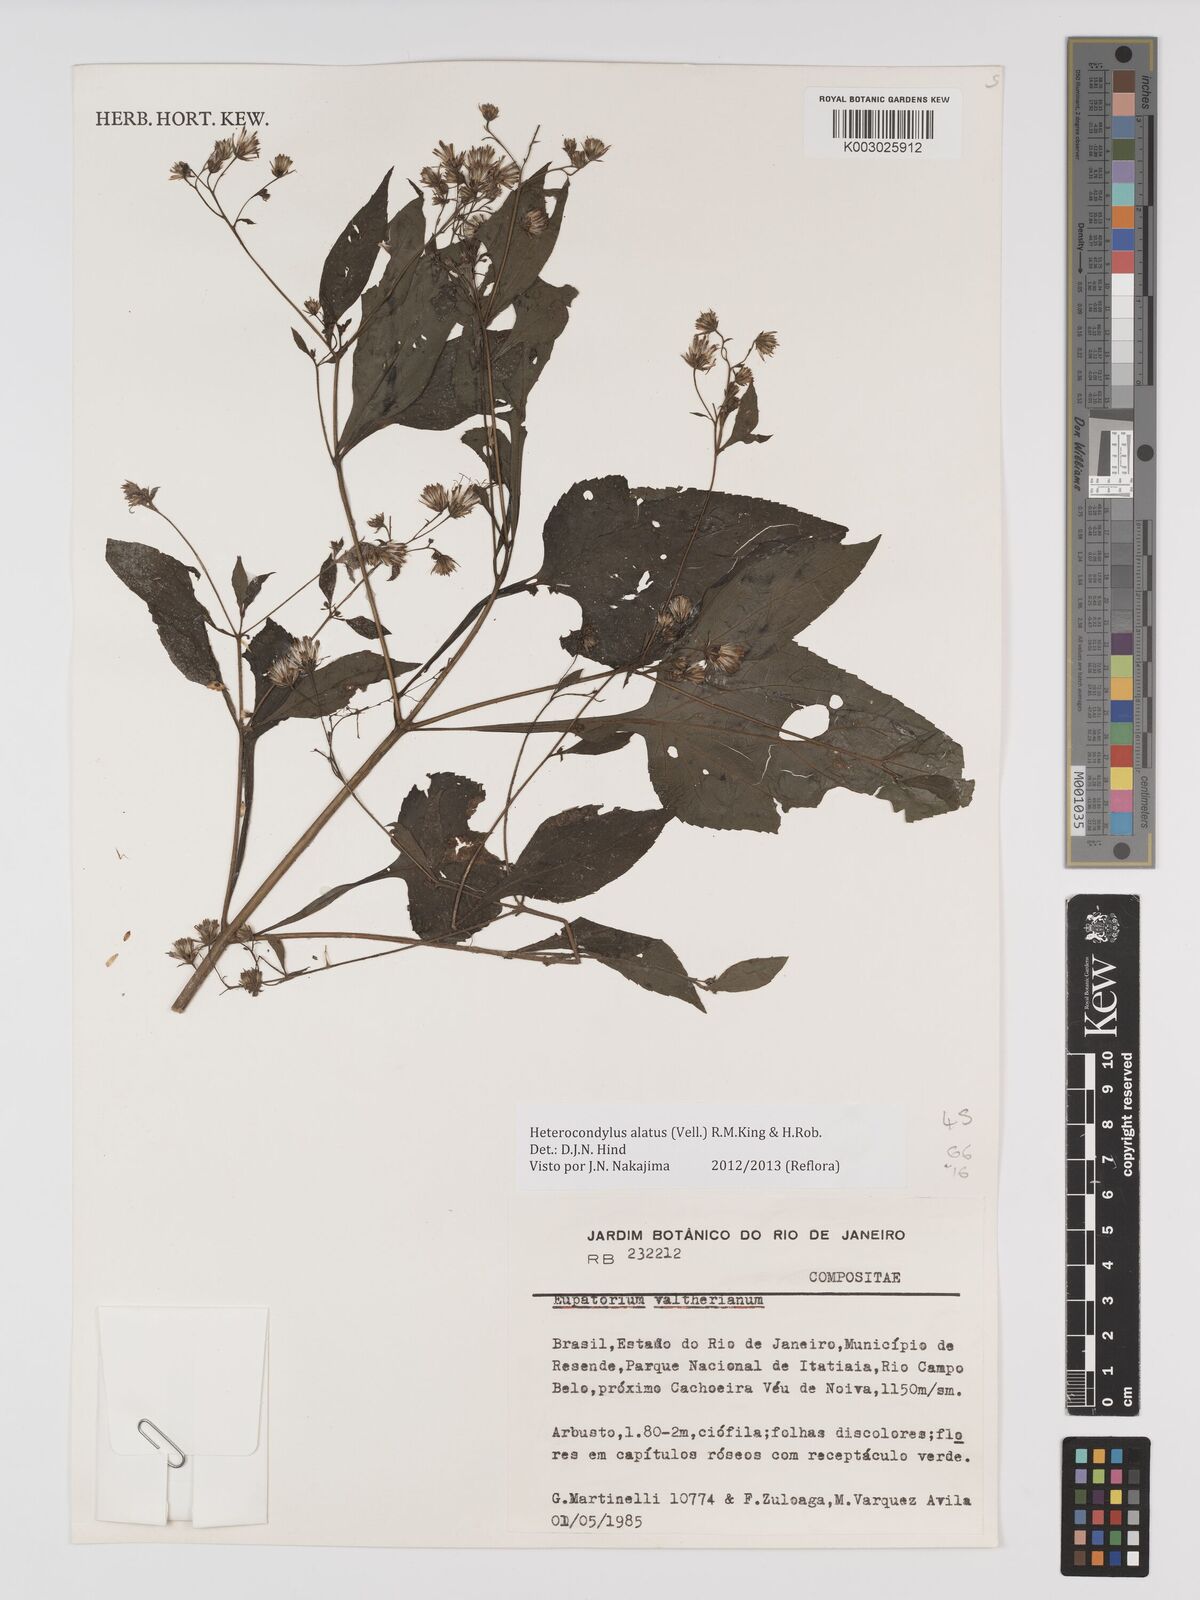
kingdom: Plantae
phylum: Tracheophyta
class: Magnoliopsida
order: Asterales
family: Asteraceae
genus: Heterocondylus
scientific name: Heterocondylus alatus
